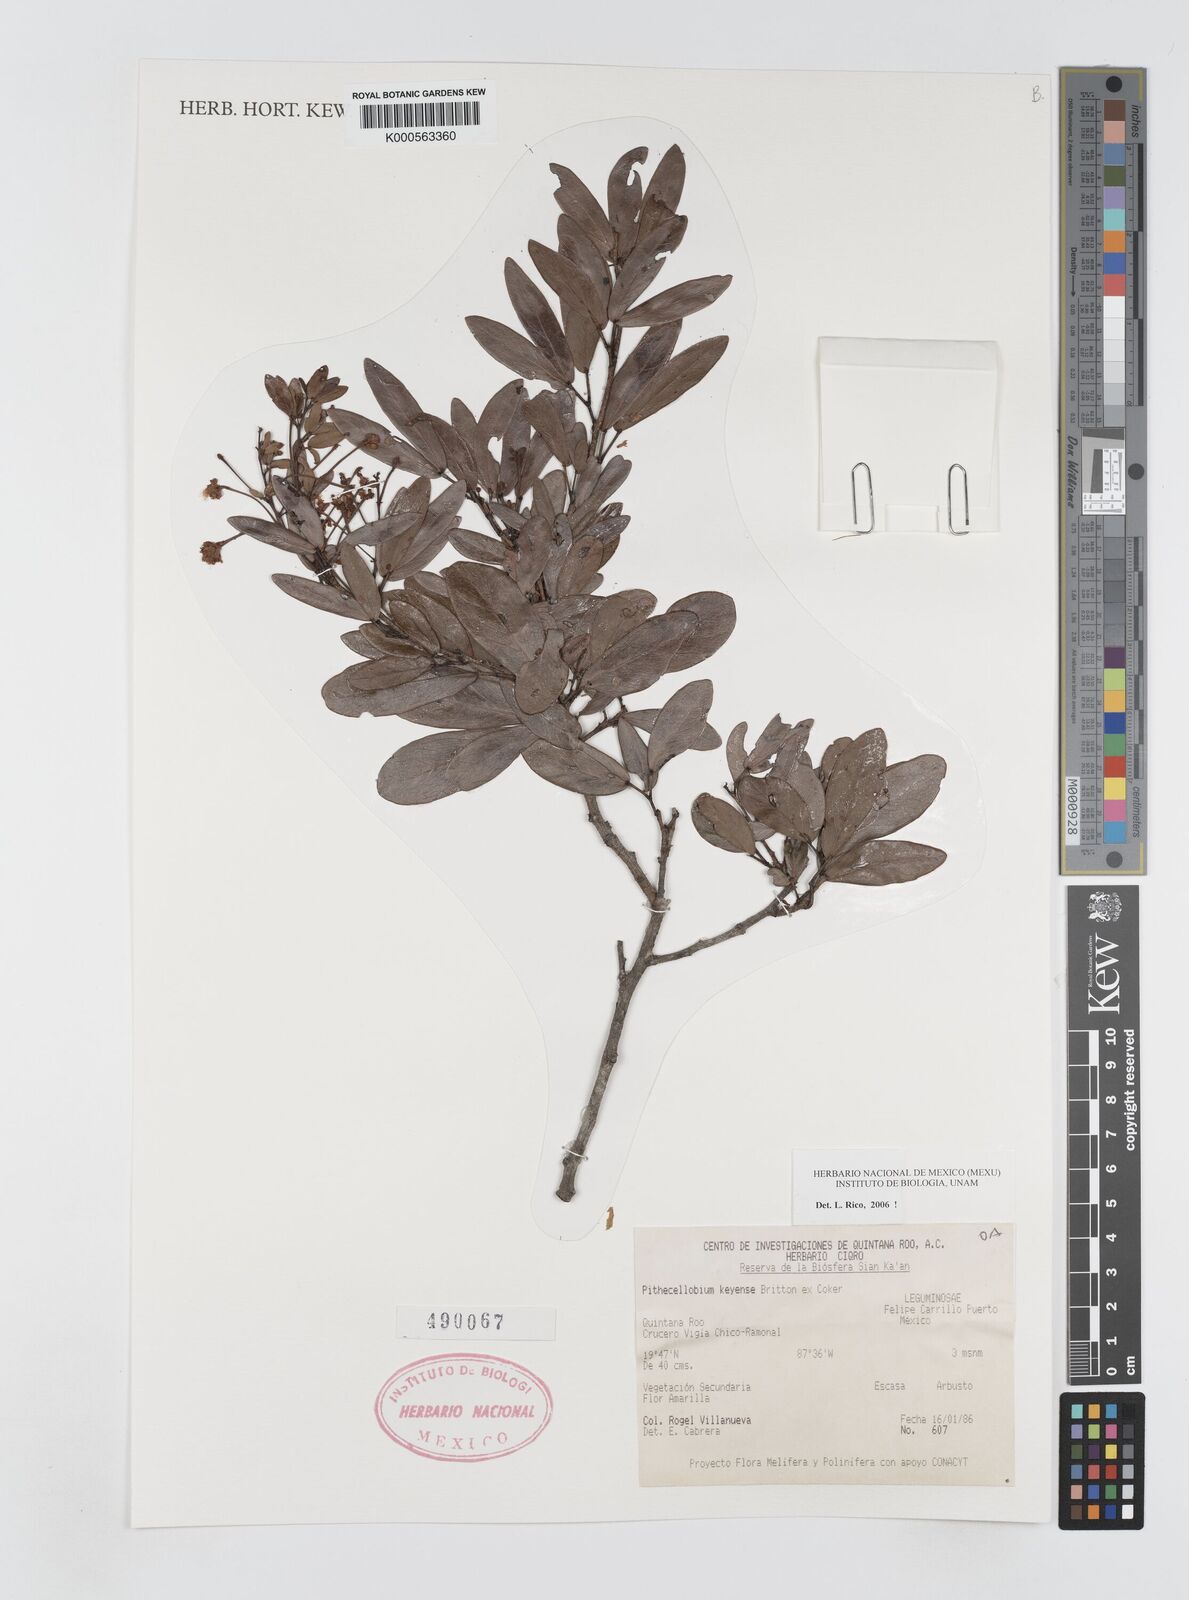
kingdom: Plantae
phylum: Tracheophyta
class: Magnoliopsida
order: Fabales
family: Fabaceae
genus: Pithecellobium
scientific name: Pithecellobium
